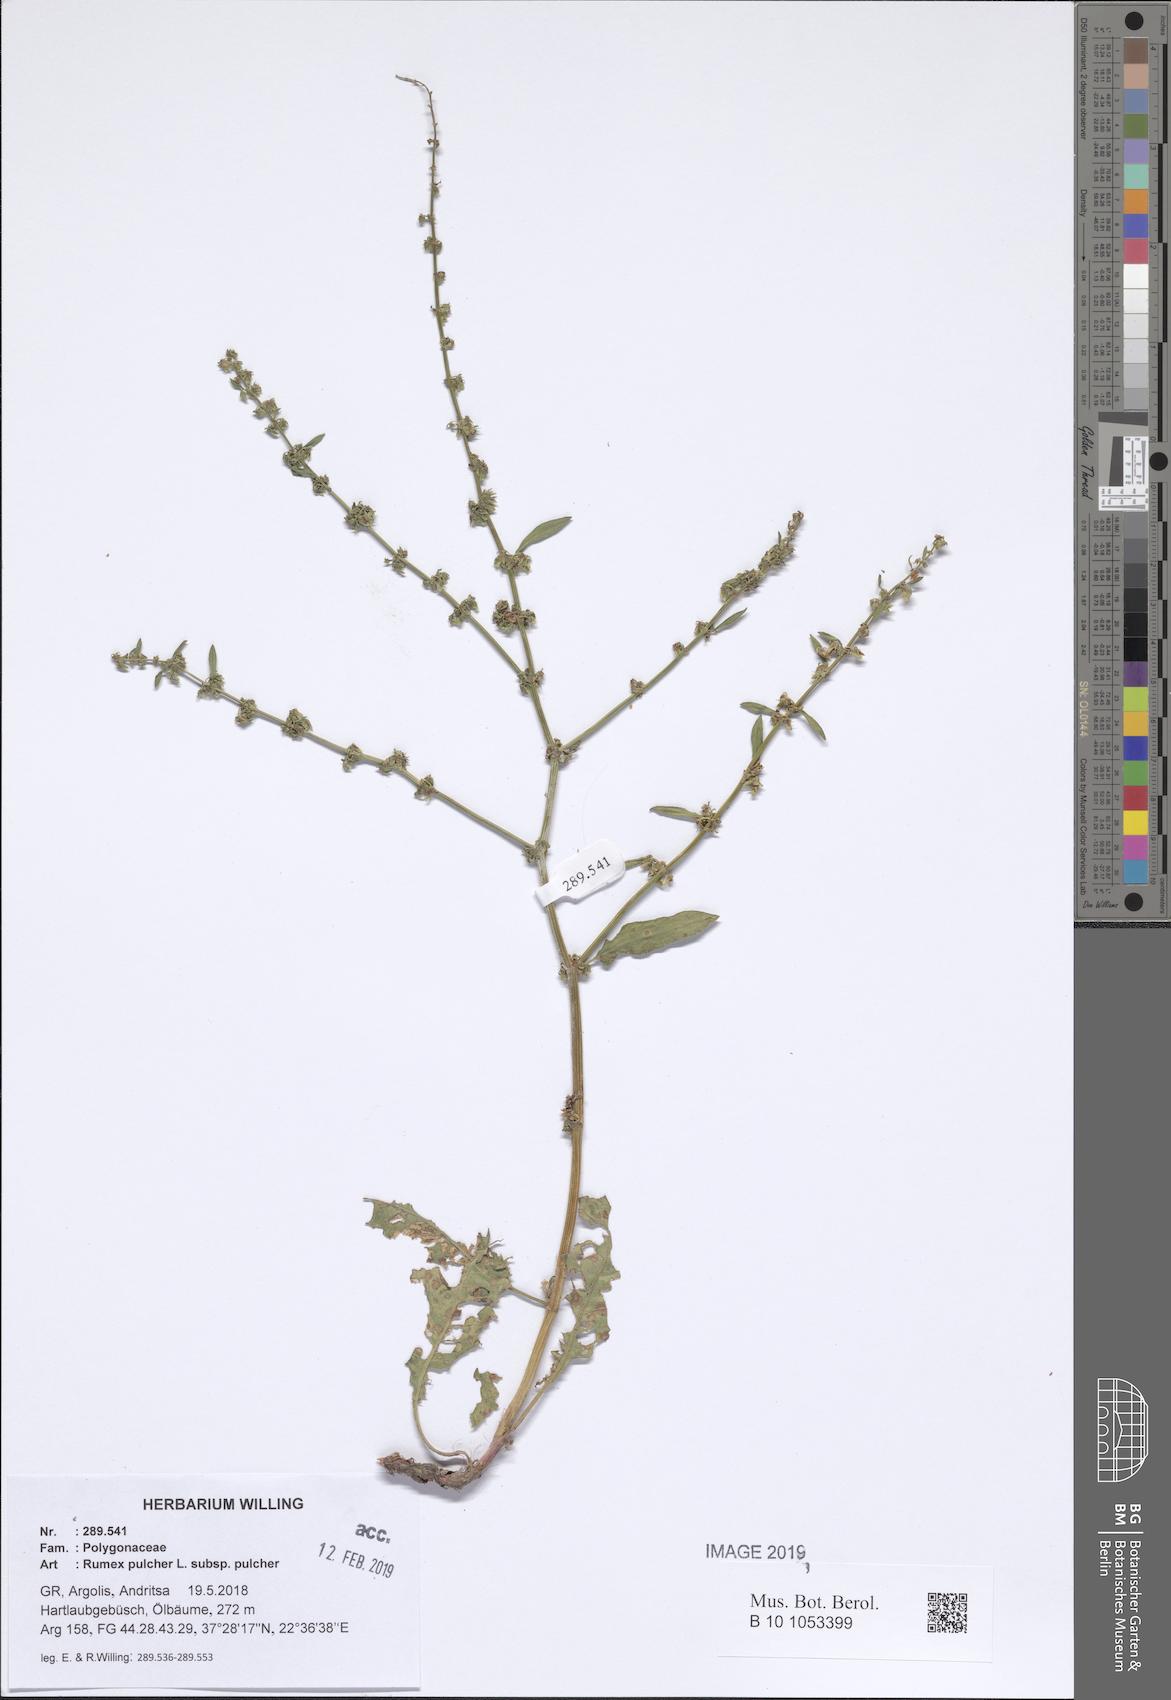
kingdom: Plantae
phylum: Tracheophyta
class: Magnoliopsida
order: Caryophyllales
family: Polygonaceae
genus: Rumex
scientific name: Rumex pulcher
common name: Fiddle dock
